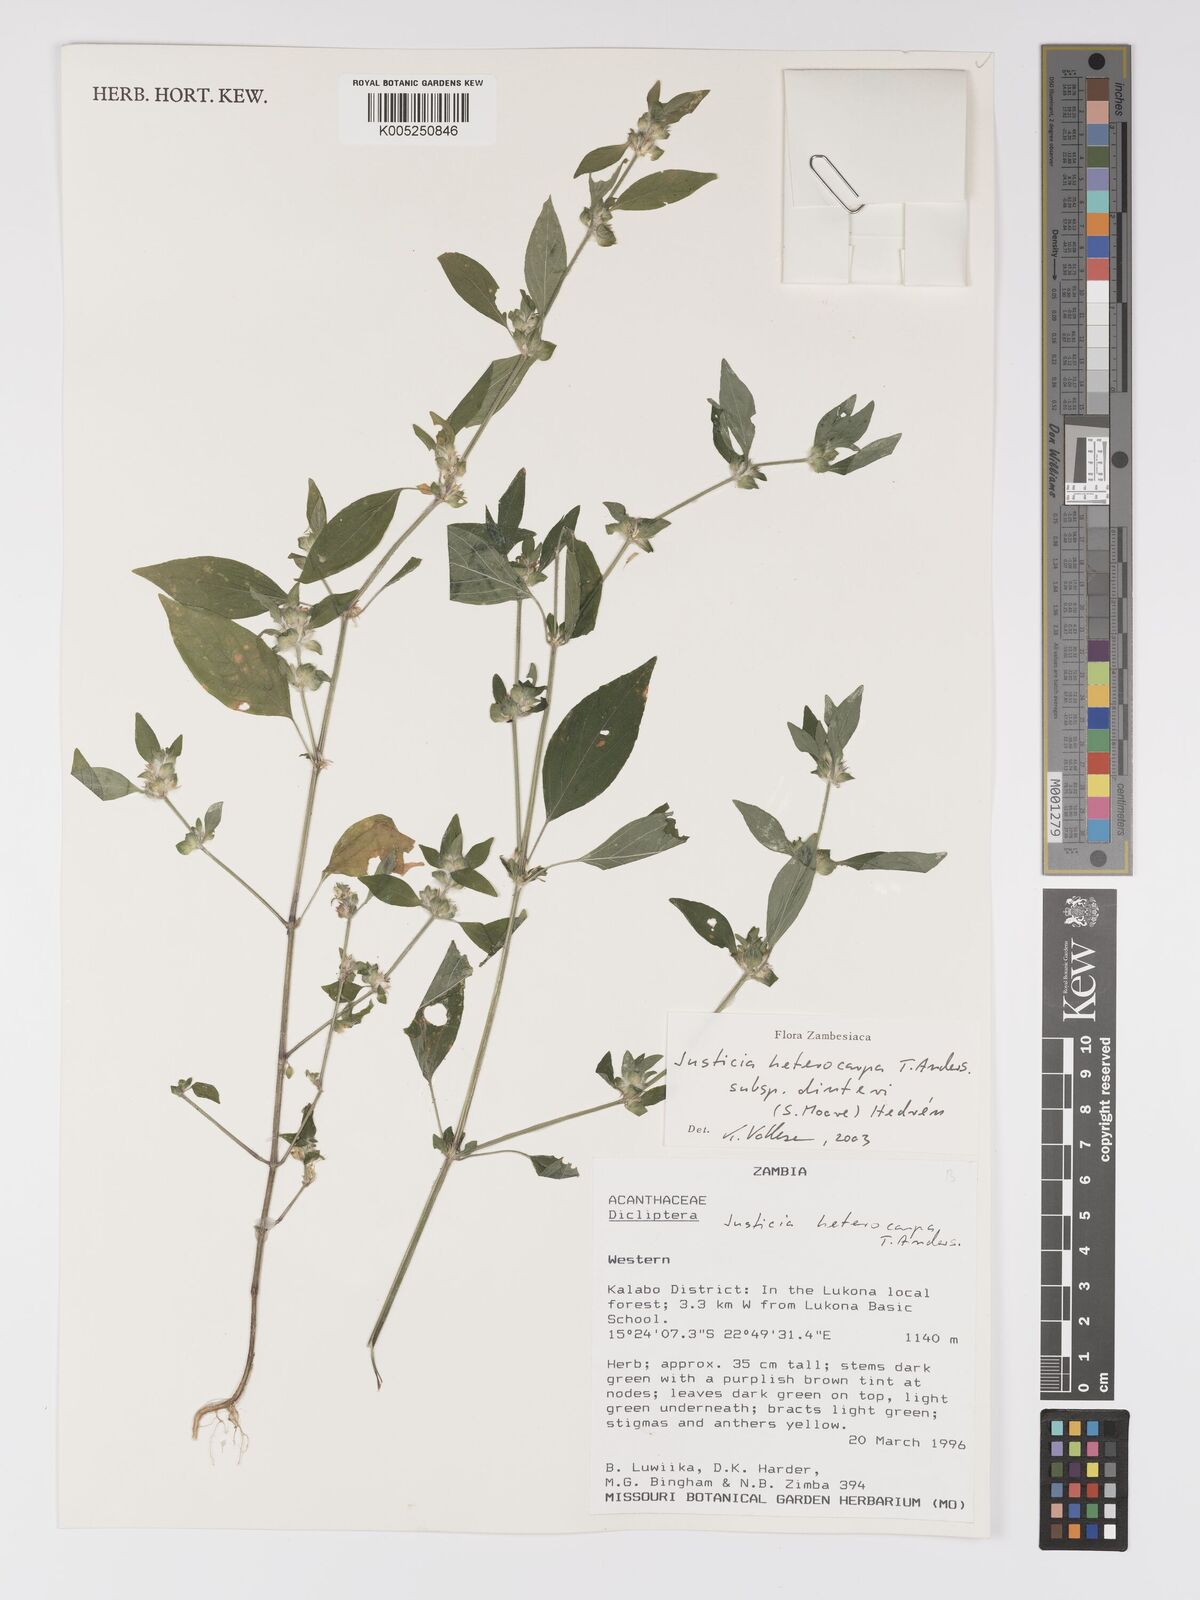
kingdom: Plantae
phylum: Tracheophyta
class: Magnoliopsida
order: Lamiales
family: Acanthaceae
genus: Justicia
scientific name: Justicia heterocarpa
